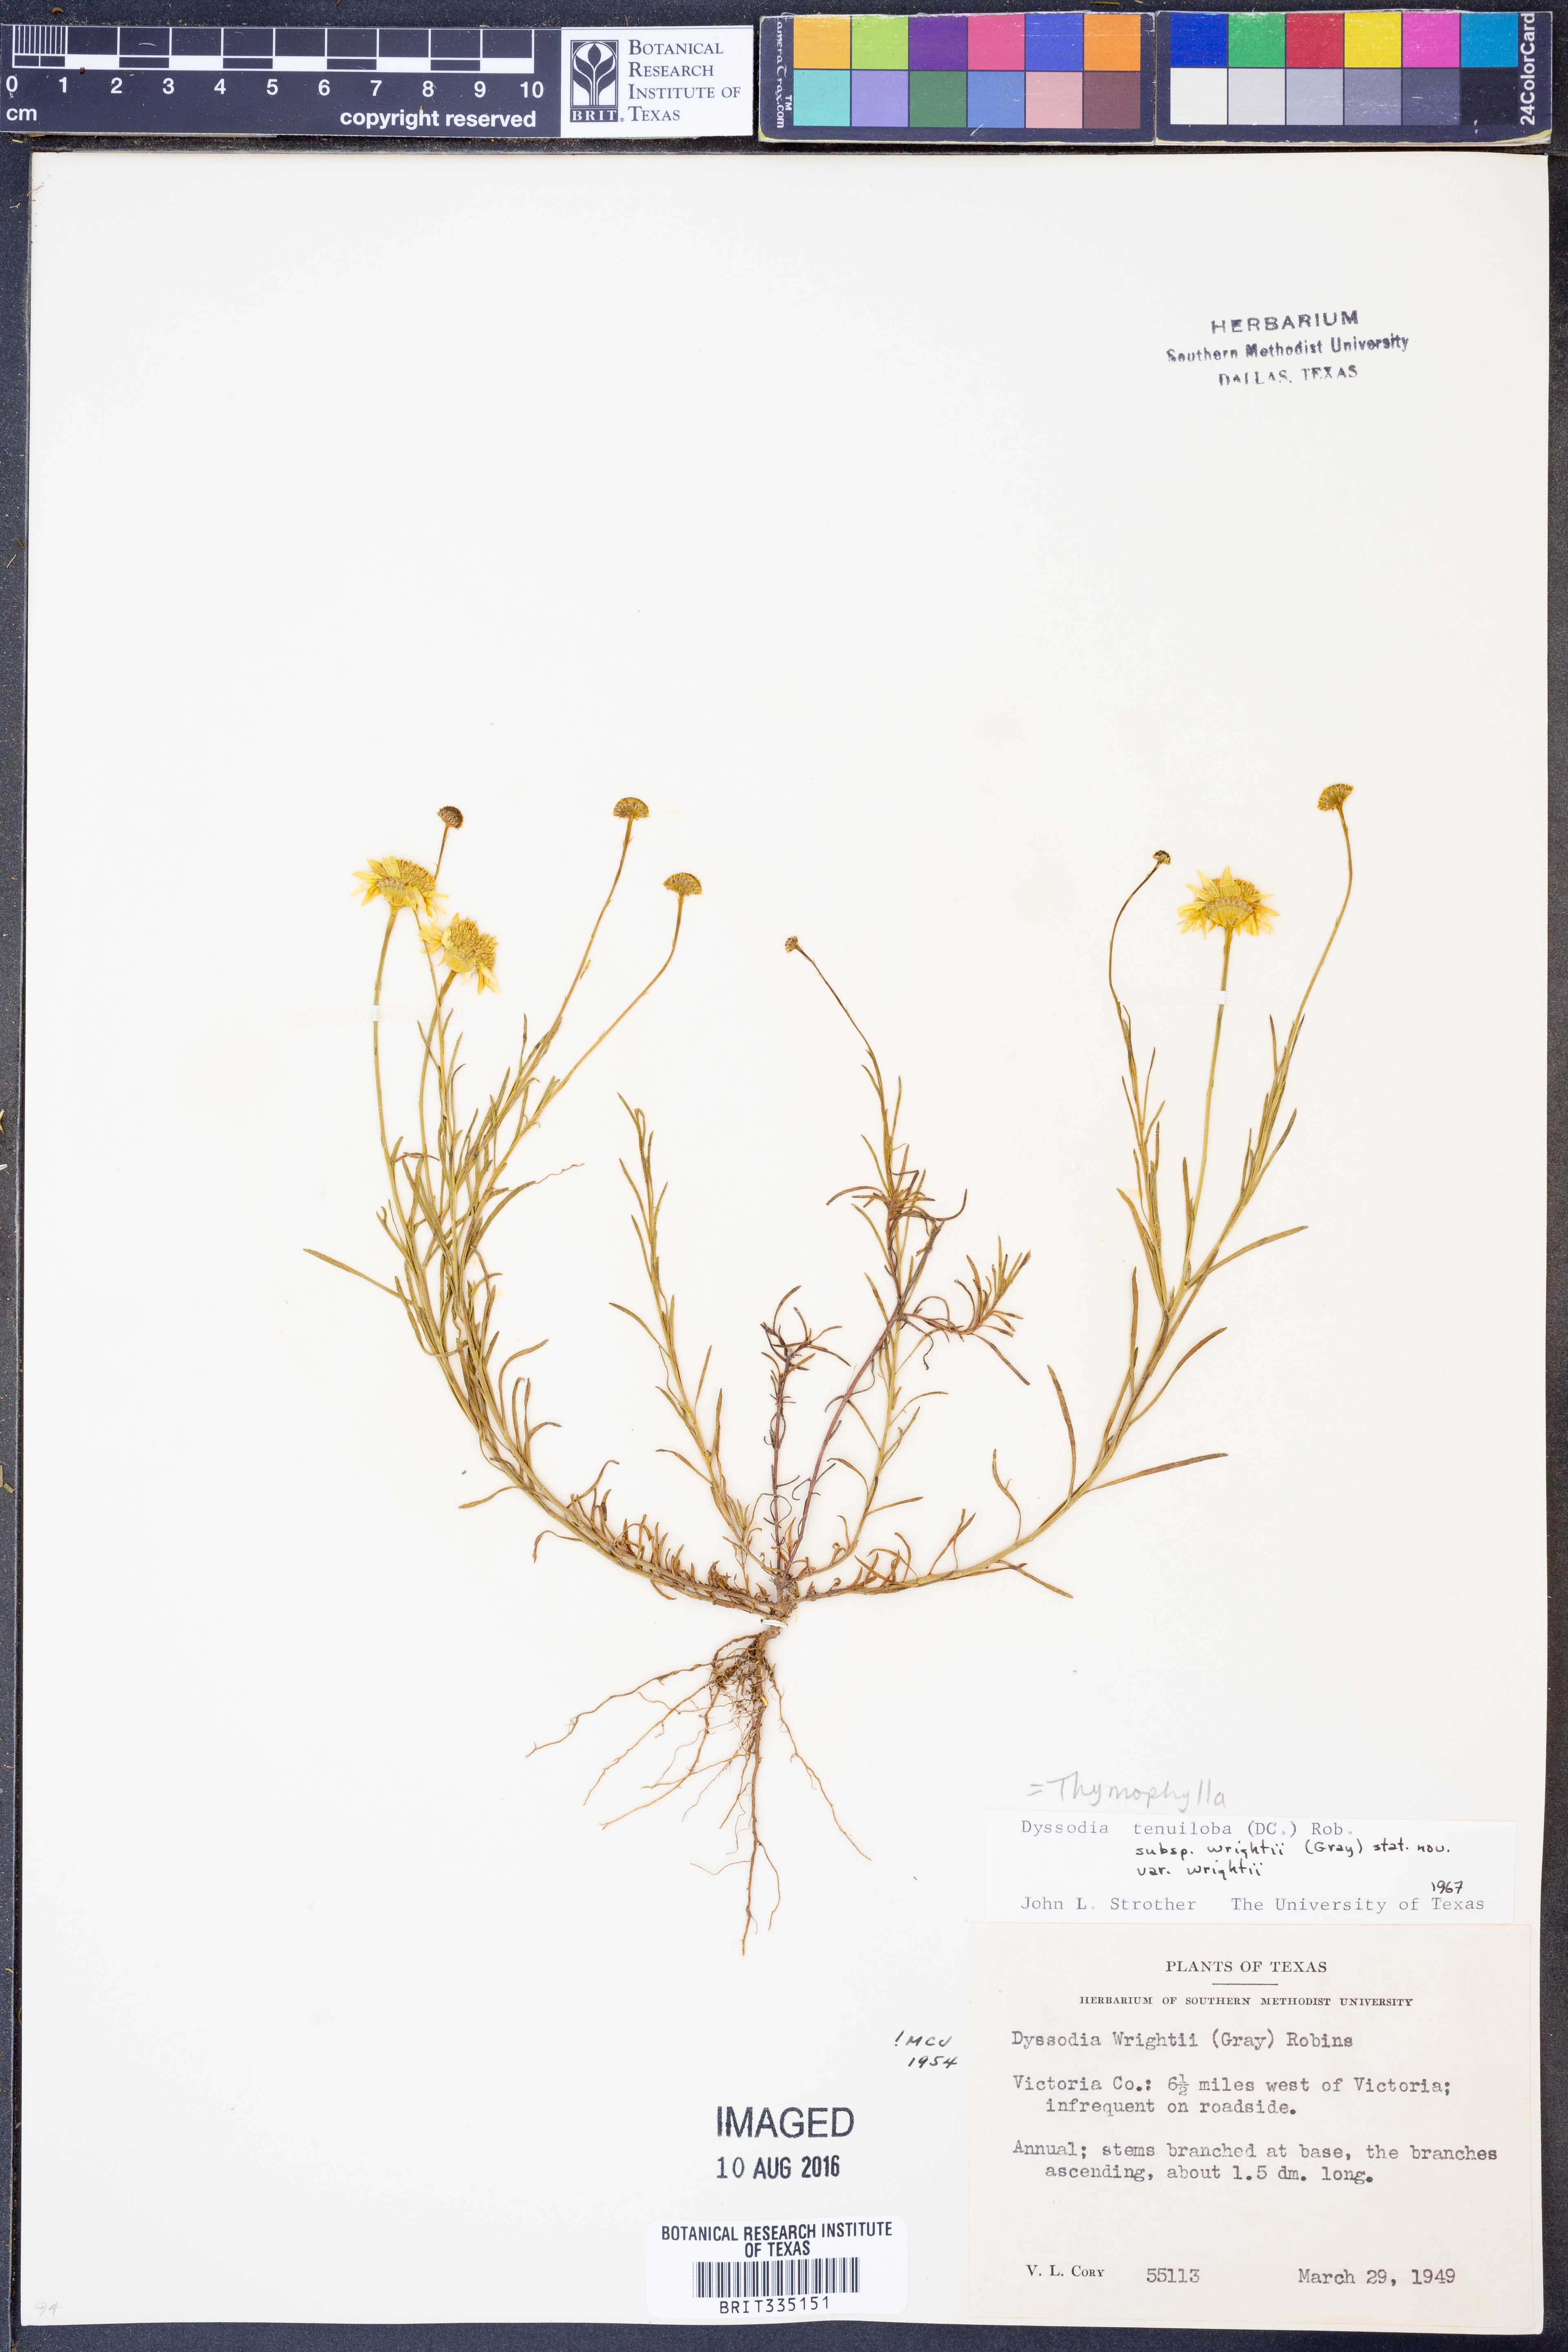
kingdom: Plantae
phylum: Tracheophyta
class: Magnoliopsida
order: Asterales
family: Asteraceae
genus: Thymophylla
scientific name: Thymophylla tenuiloba
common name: Dahlberg's daisy
